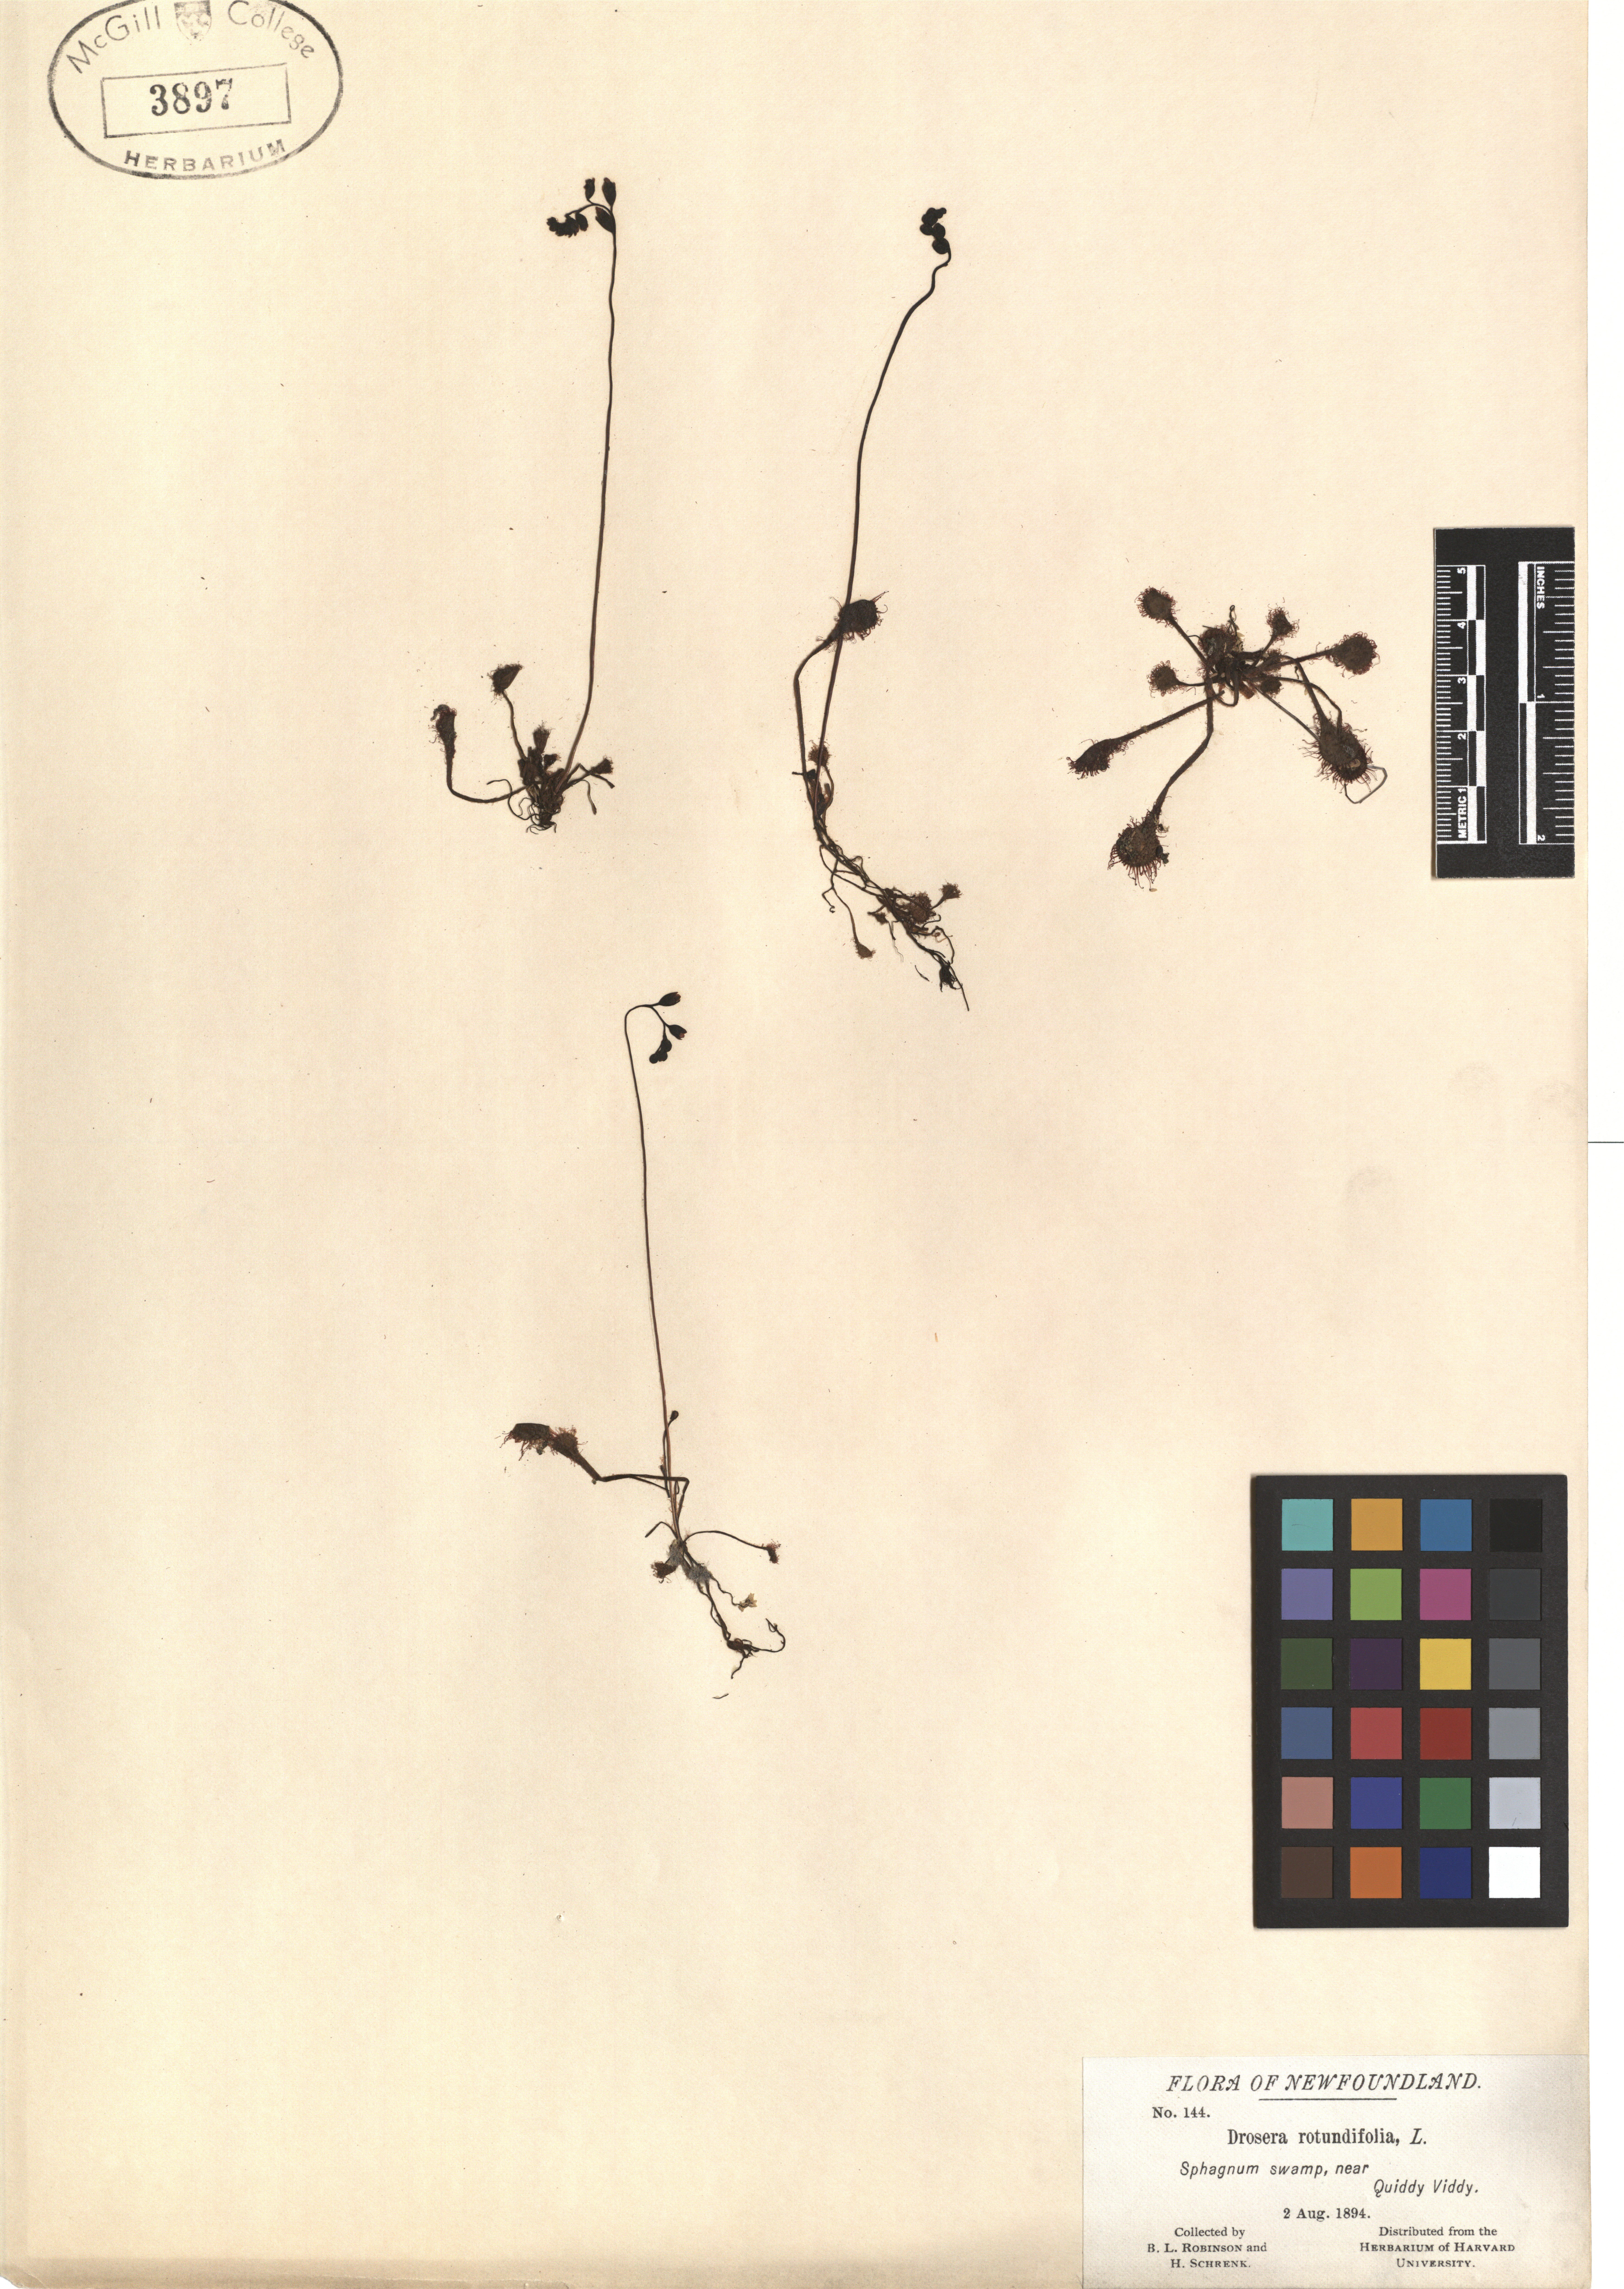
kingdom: Plantae
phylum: Tracheophyta
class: Magnoliopsida
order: Caryophyllales
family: Droseraceae
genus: Drosera
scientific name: Drosera rotundifolia
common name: Round-leaved sundew
